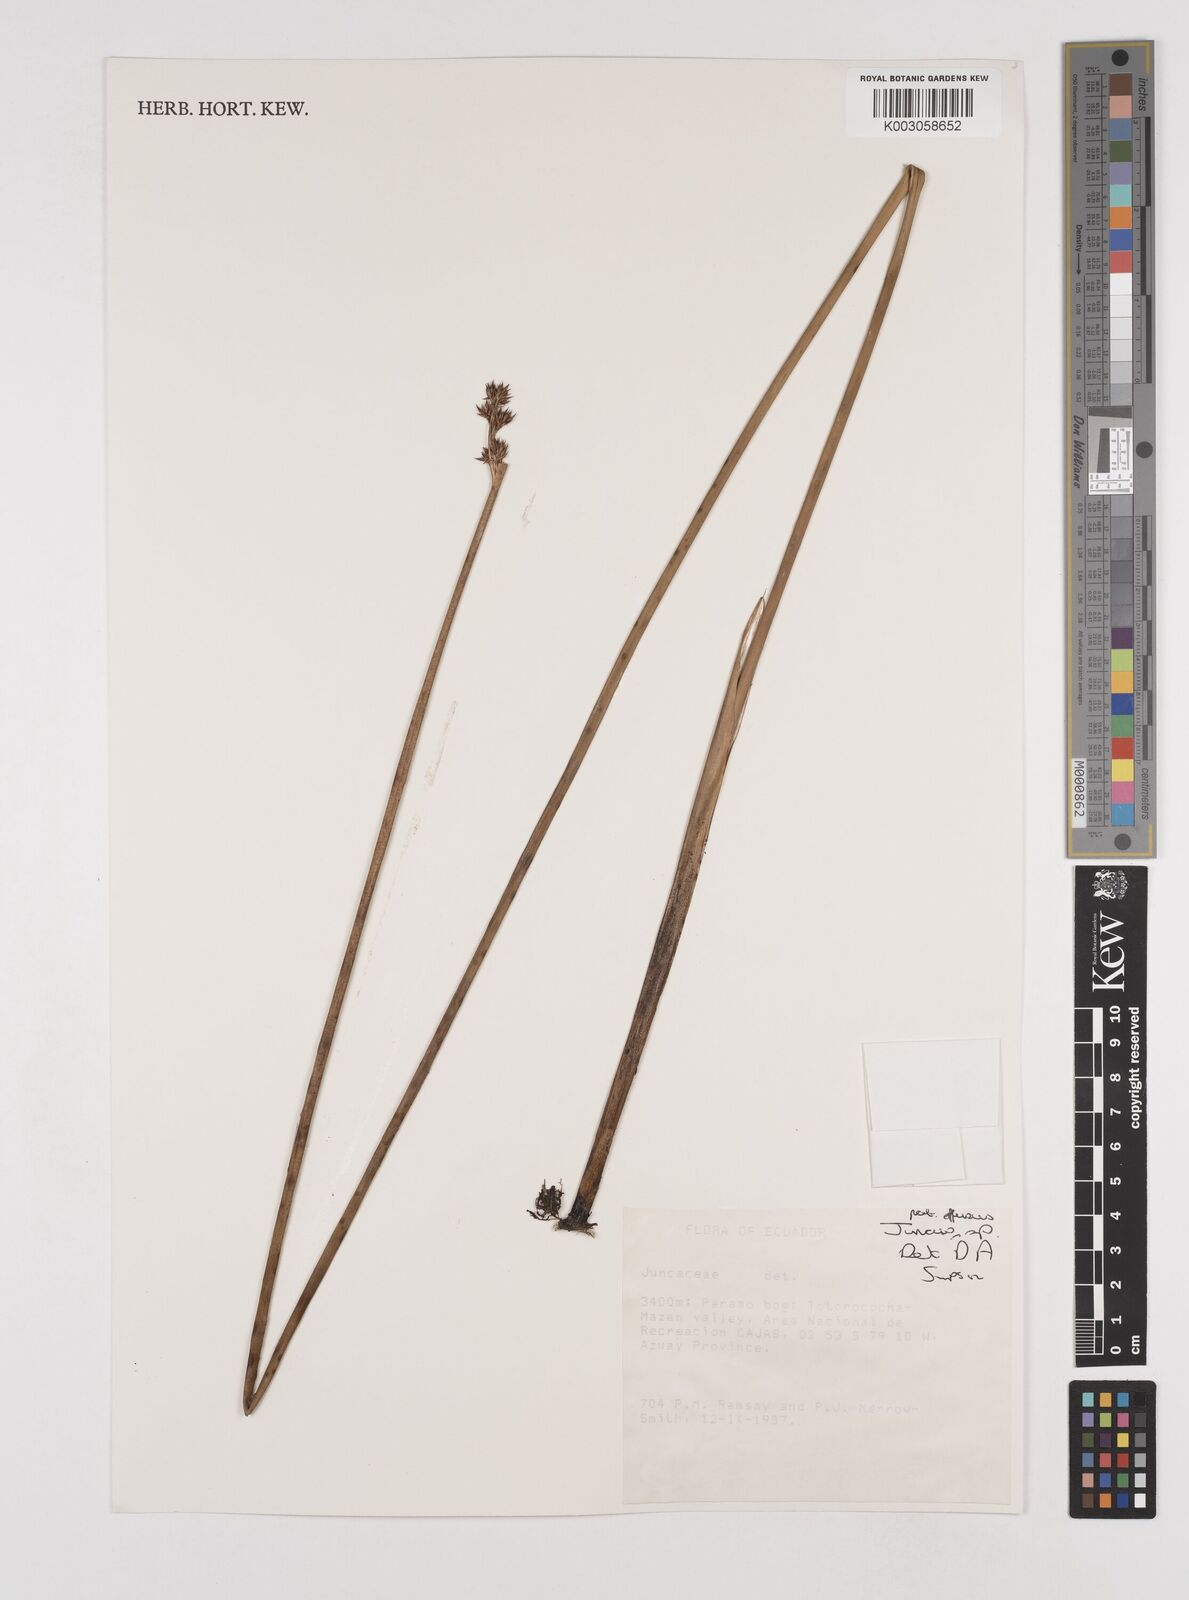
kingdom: Plantae
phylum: Tracheophyta
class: Liliopsida
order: Poales
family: Juncaceae
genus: Juncus
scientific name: Juncus
